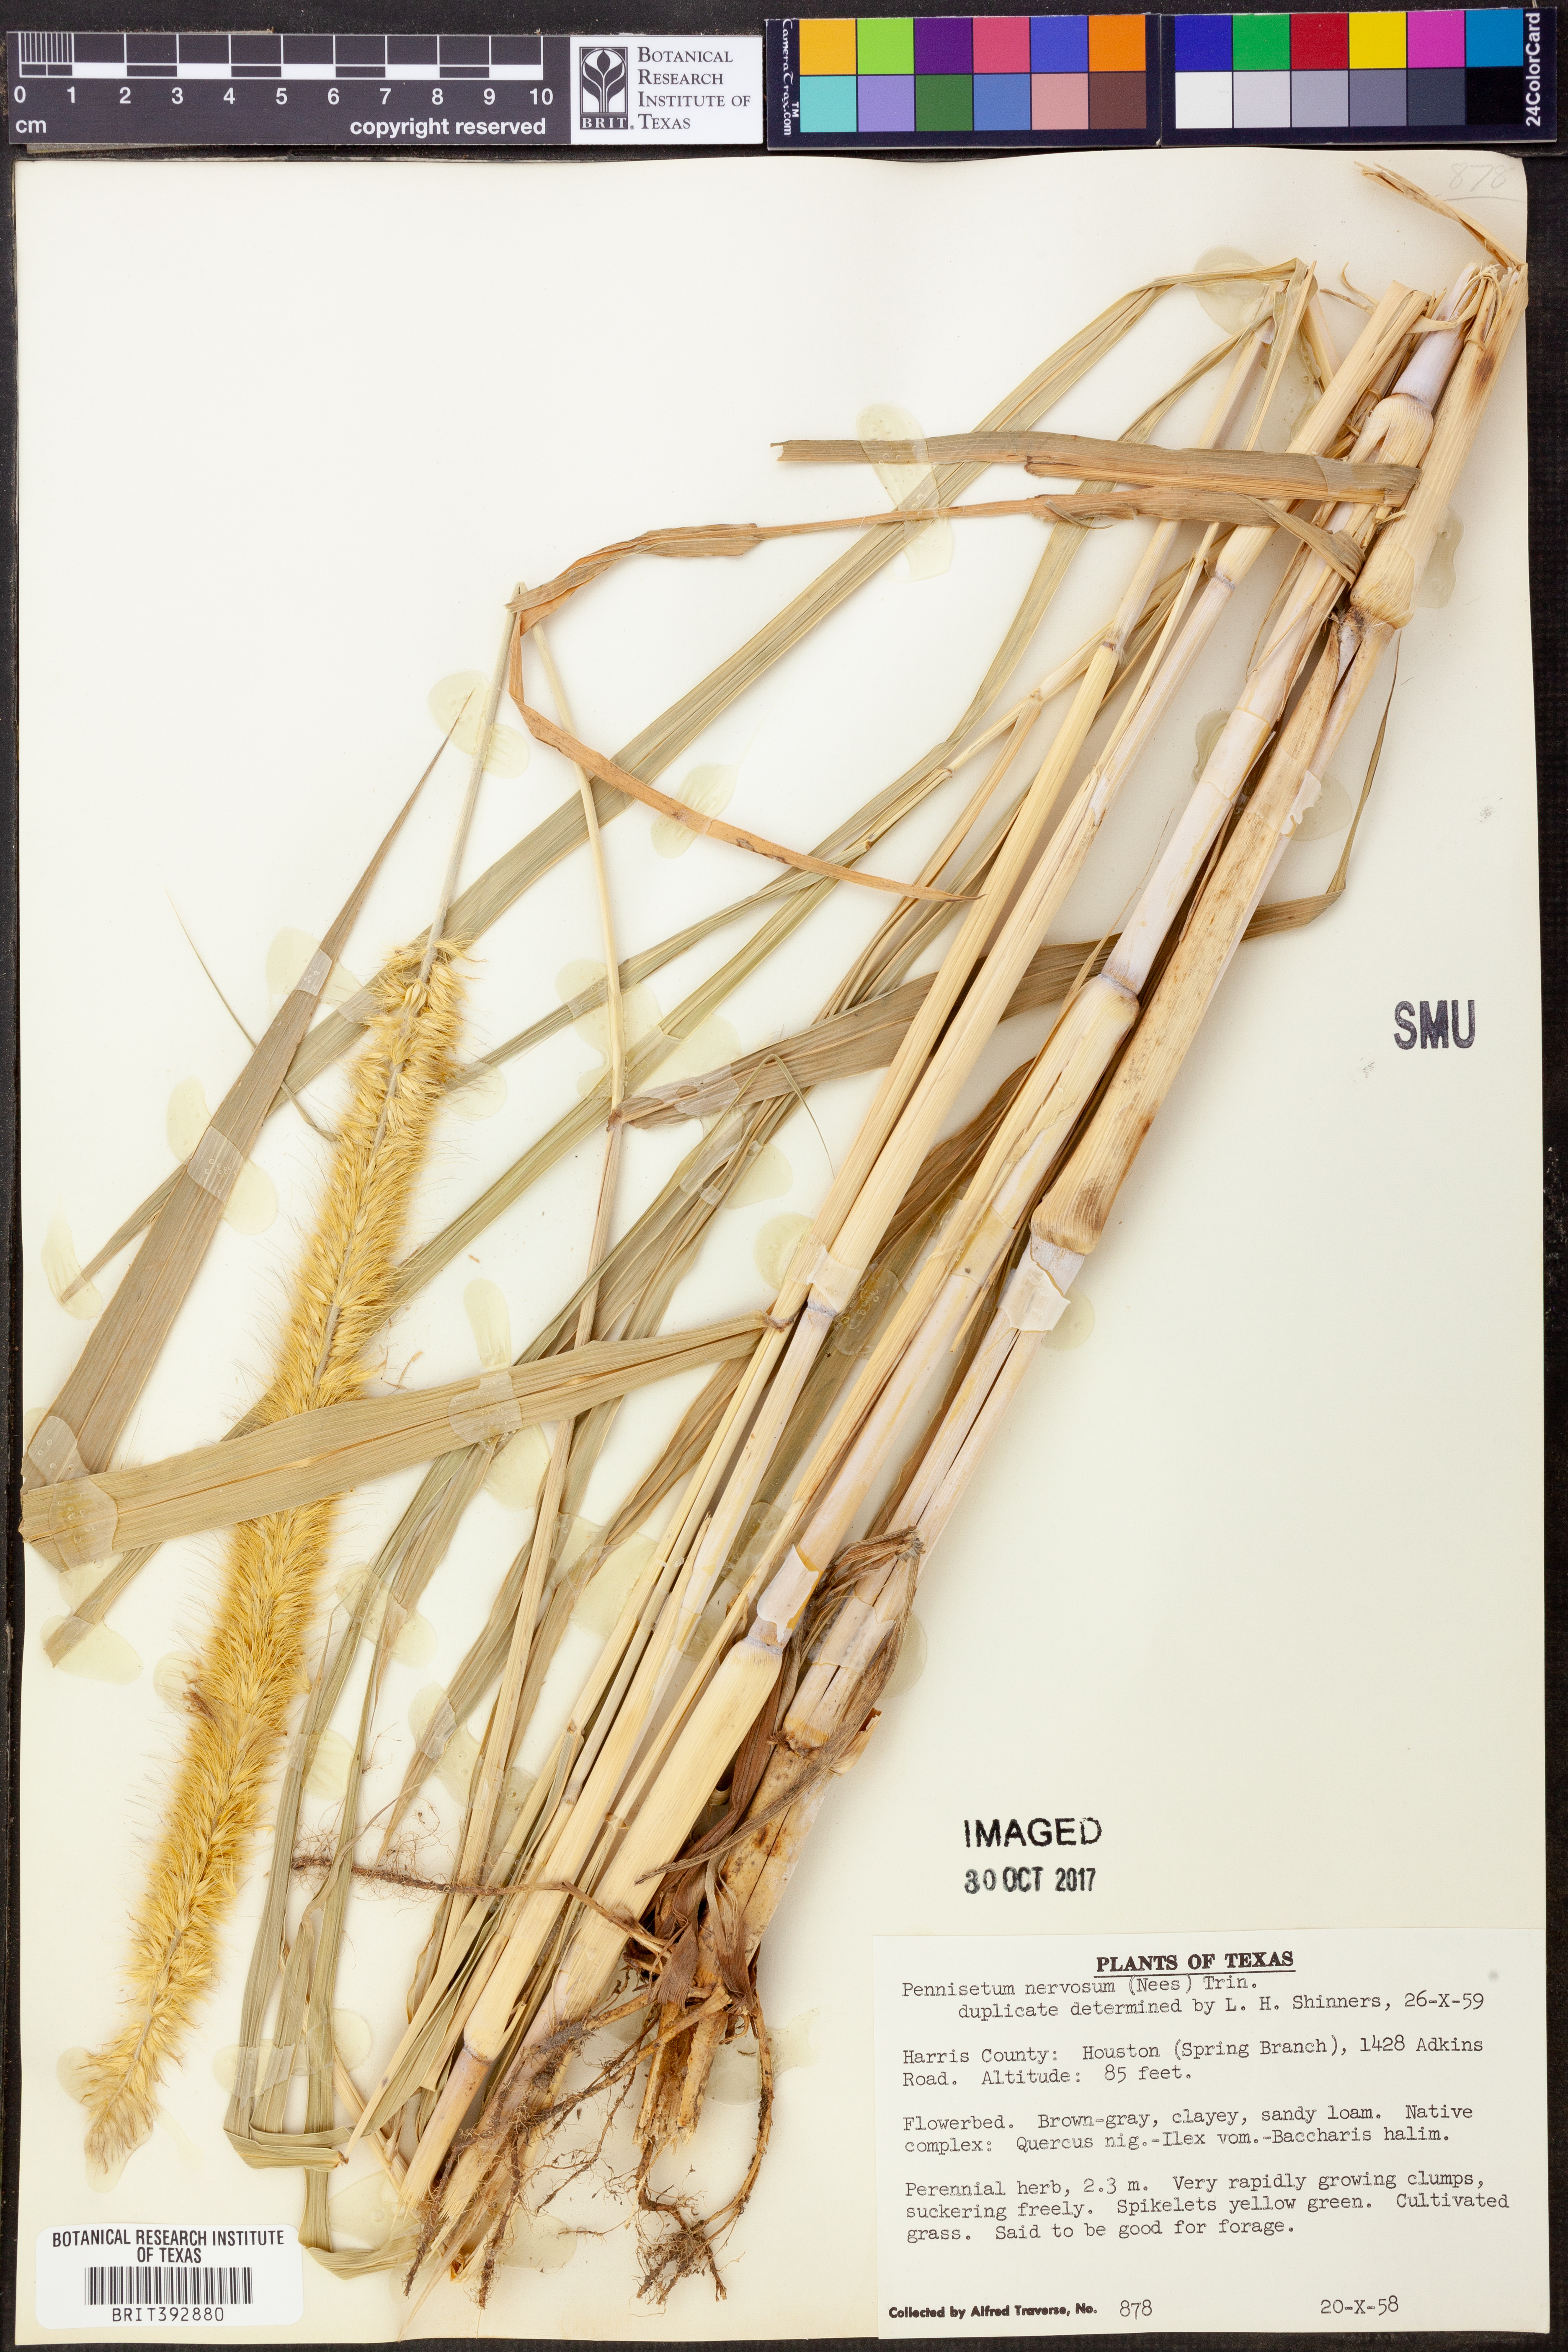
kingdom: Plantae
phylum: Tracheophyta
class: Liliopsida
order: Poales
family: Poaceae
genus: Cenchrus
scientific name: Cenchrus nervosus
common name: Bentspike fountaingrass
